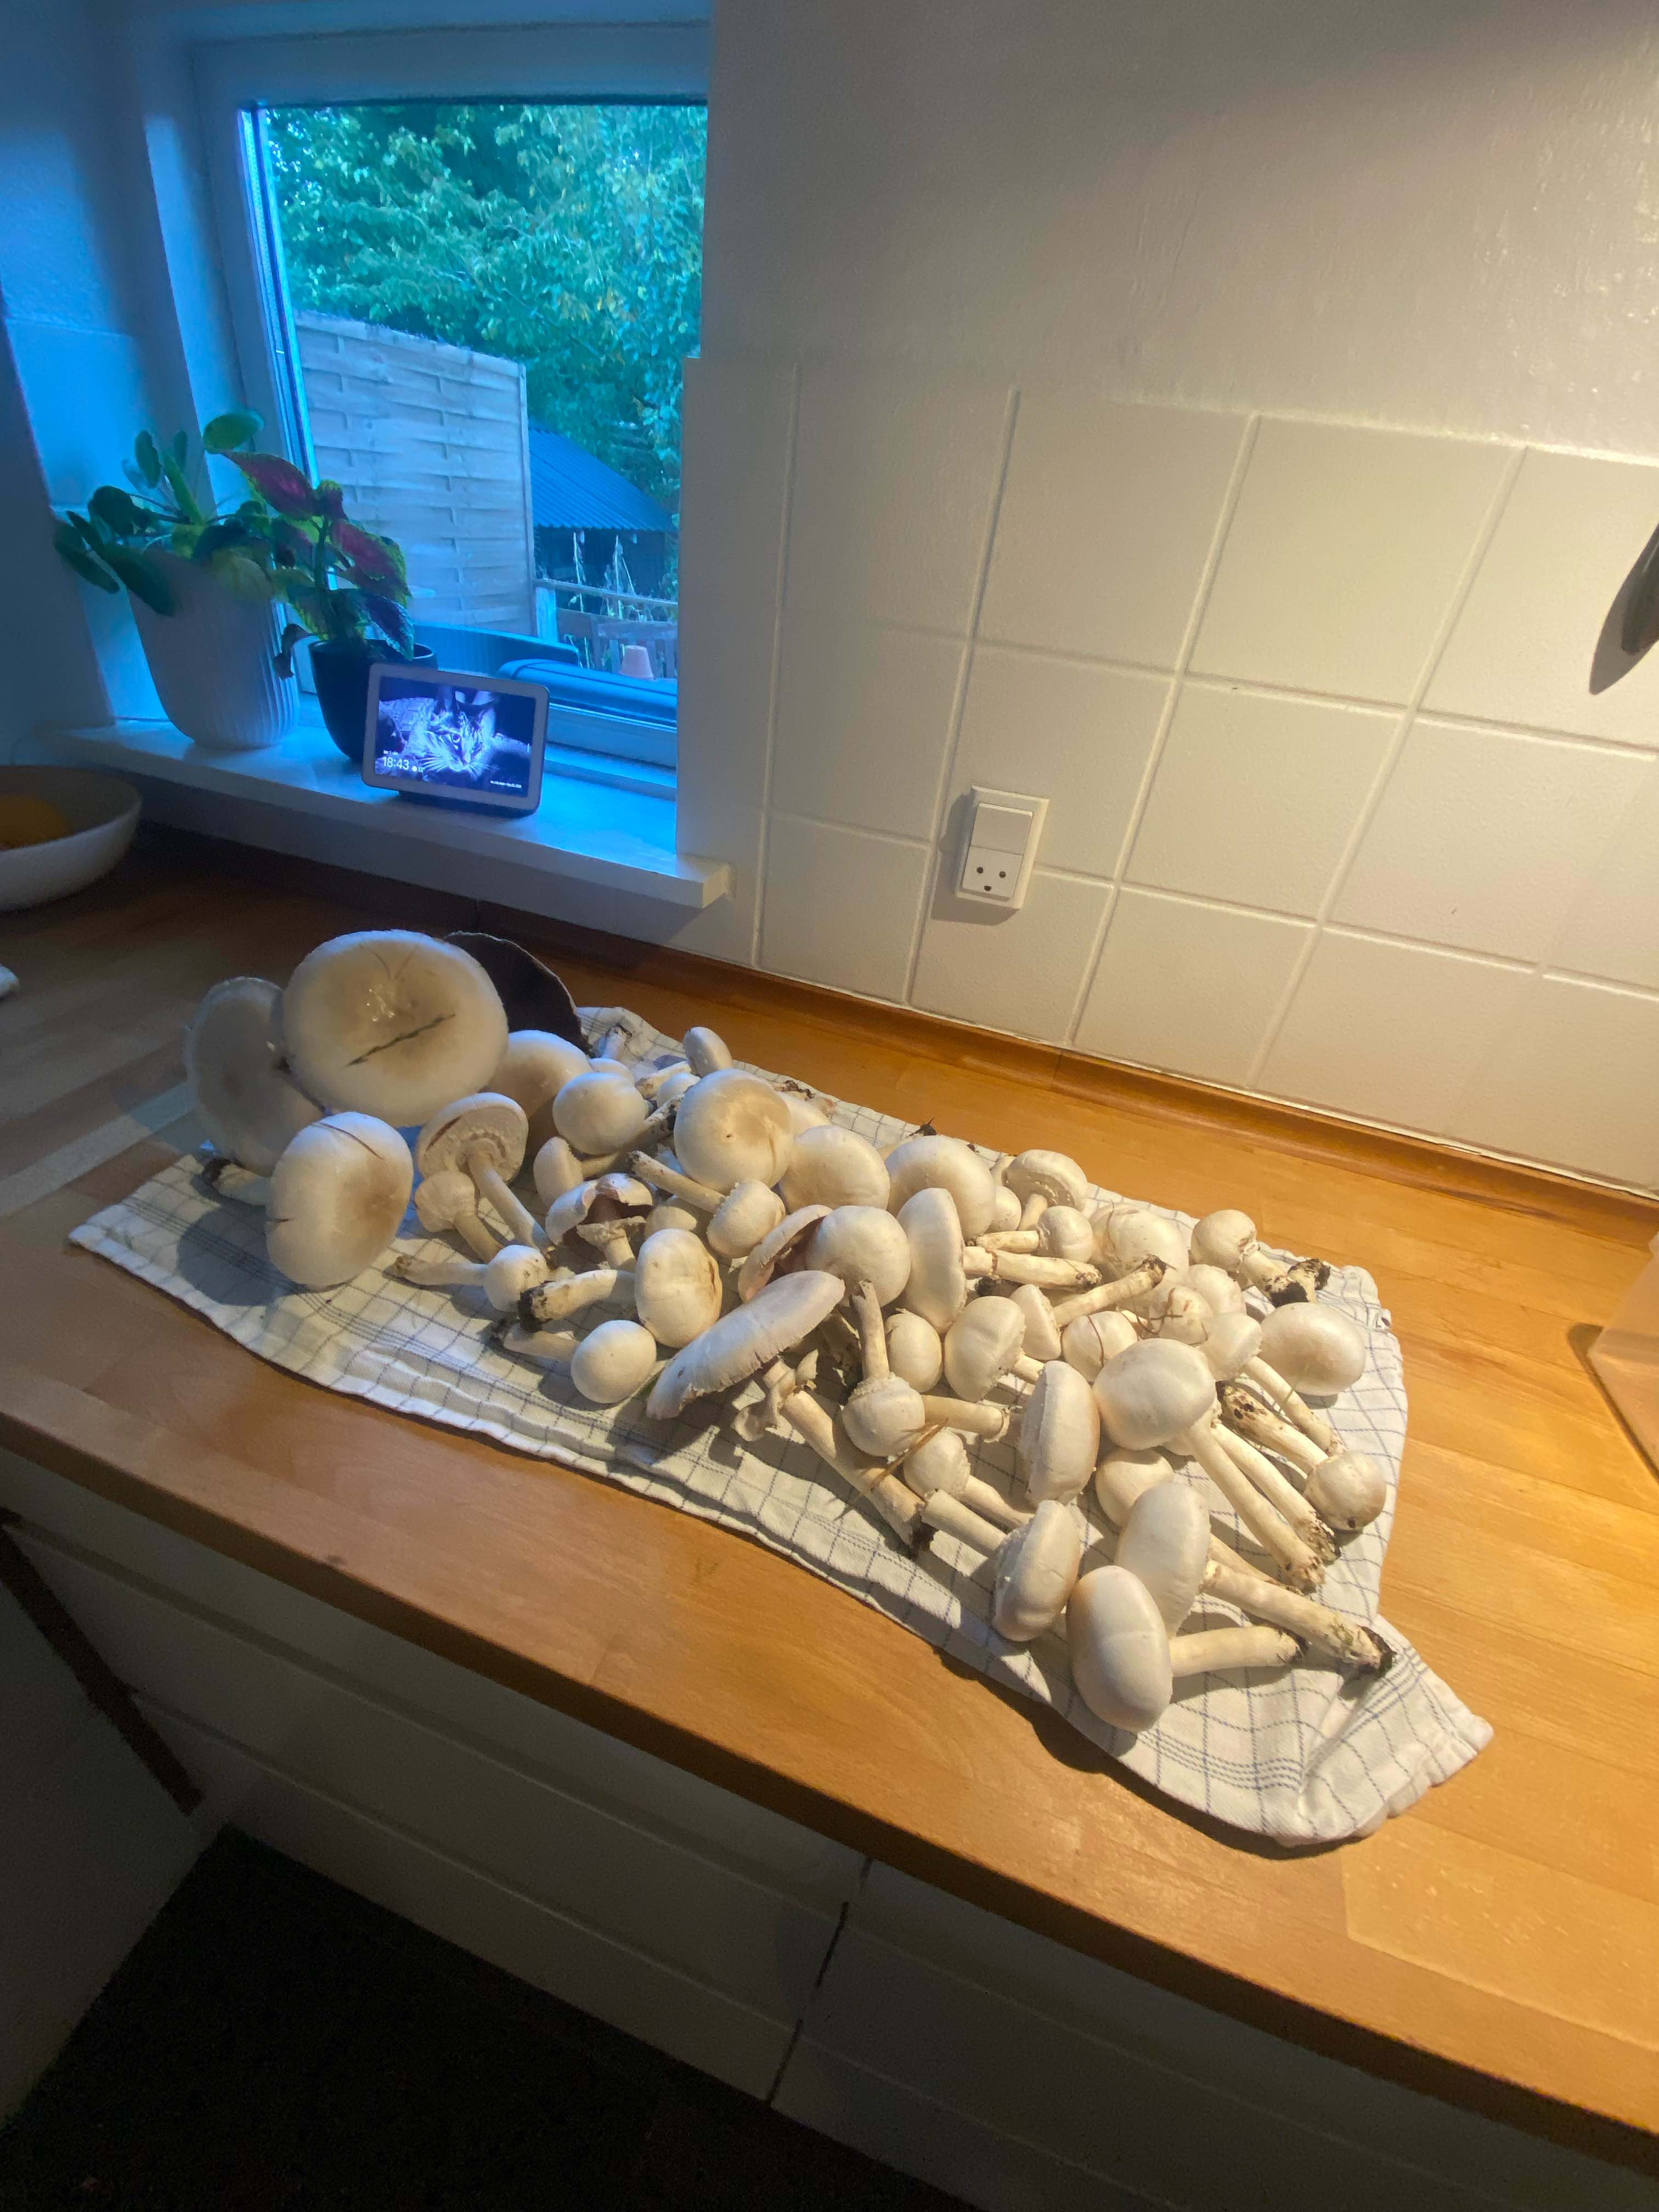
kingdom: Fungi
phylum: Basidiomycota
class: Agaricomycetes
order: Agaricales
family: Agaricaceae
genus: Agaricus
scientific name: Agaricus
